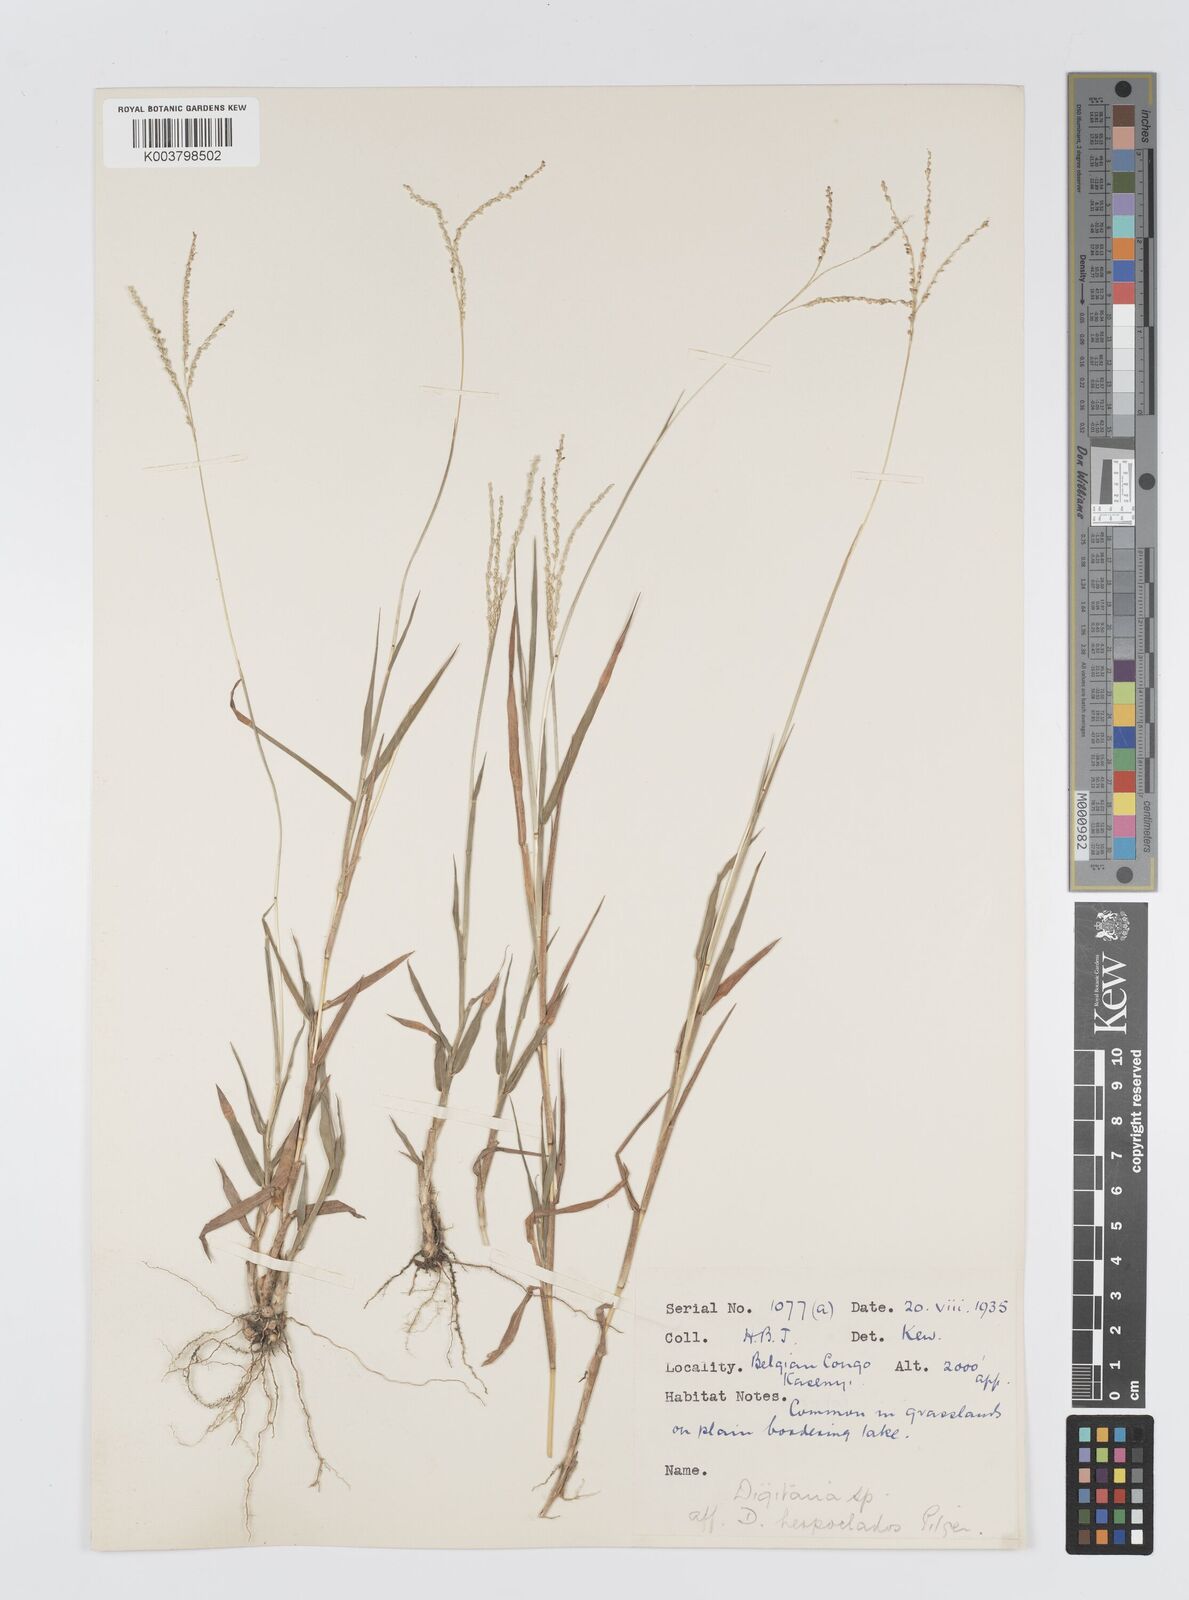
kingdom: Plantae
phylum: Tracheophyta
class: Liliopsida
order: Poales
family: Poaceae
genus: Digitaria
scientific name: Digitaria gazensis
